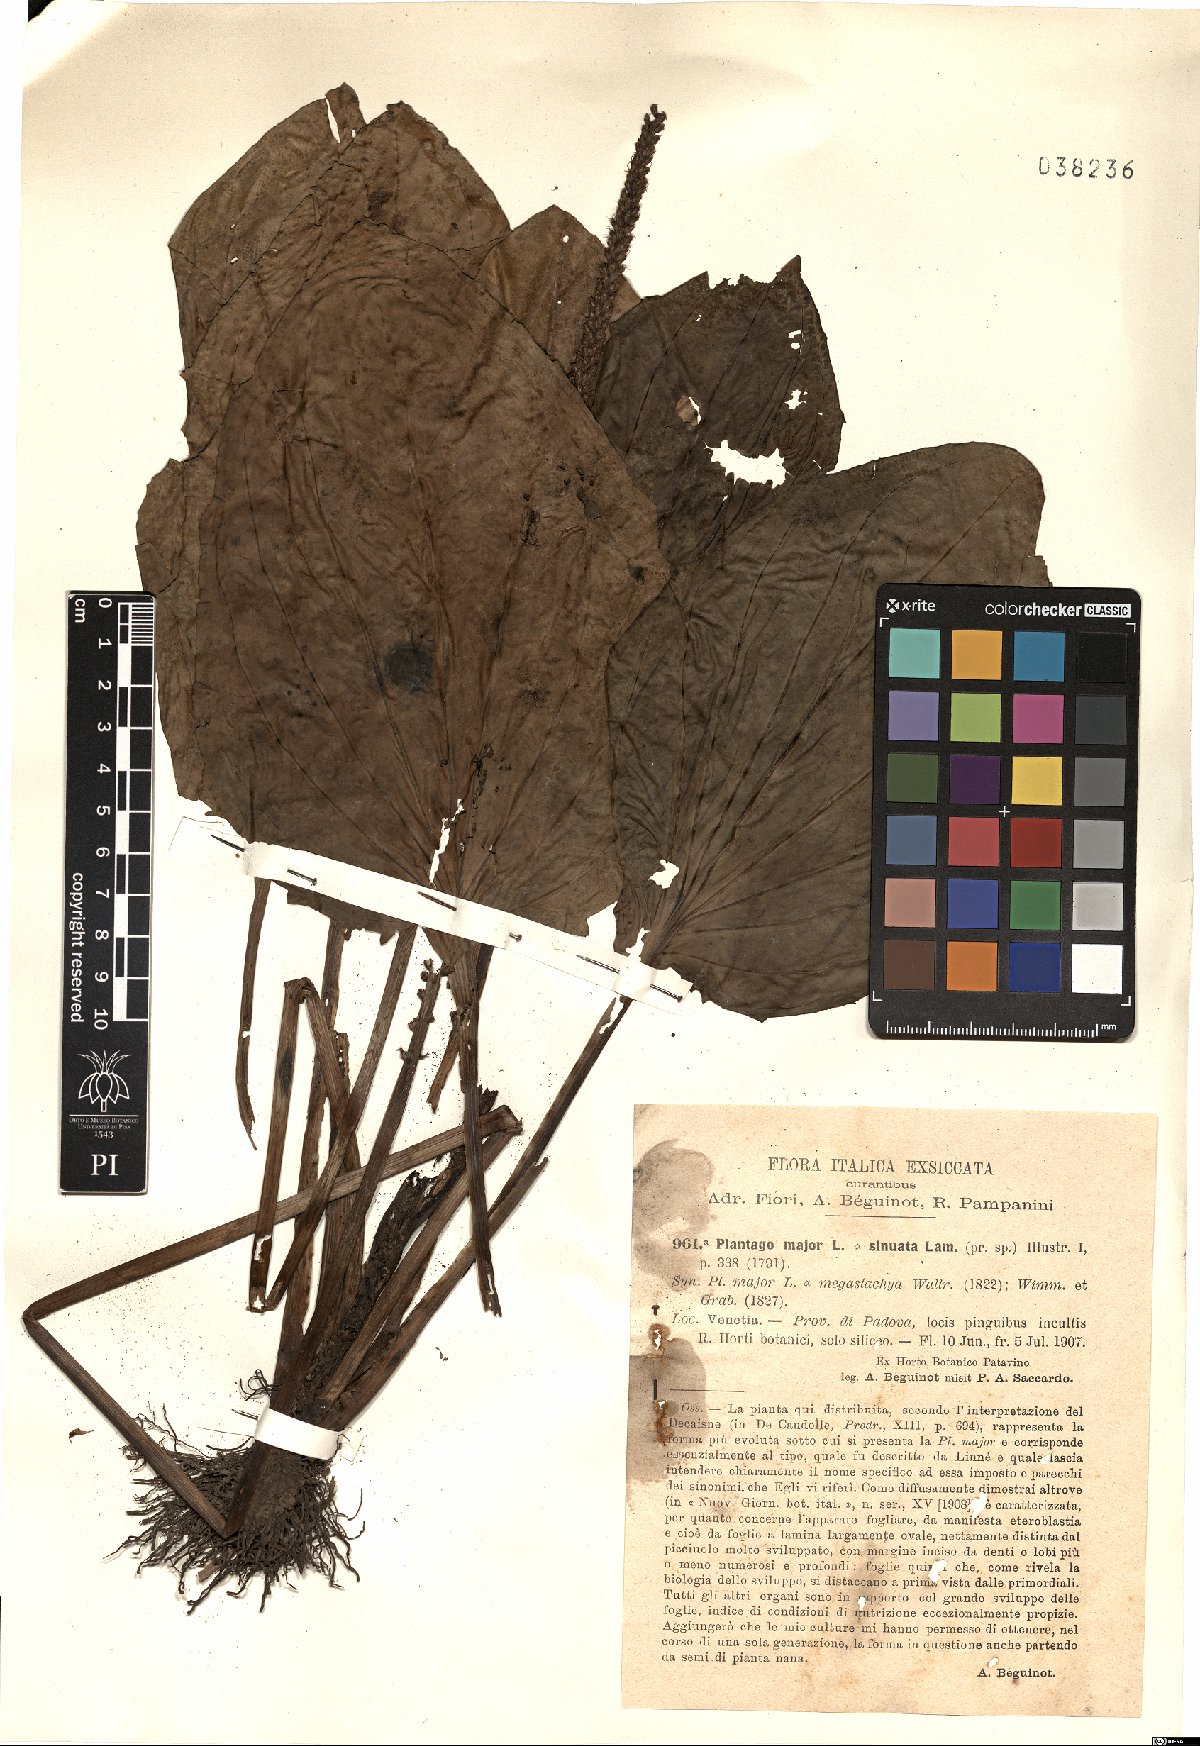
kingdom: Plantae
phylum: Tracheophyta
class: Magnoliopsida
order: Lamiales
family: Plantaginaceae
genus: Plantago
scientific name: Plantago major
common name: Common plantain
